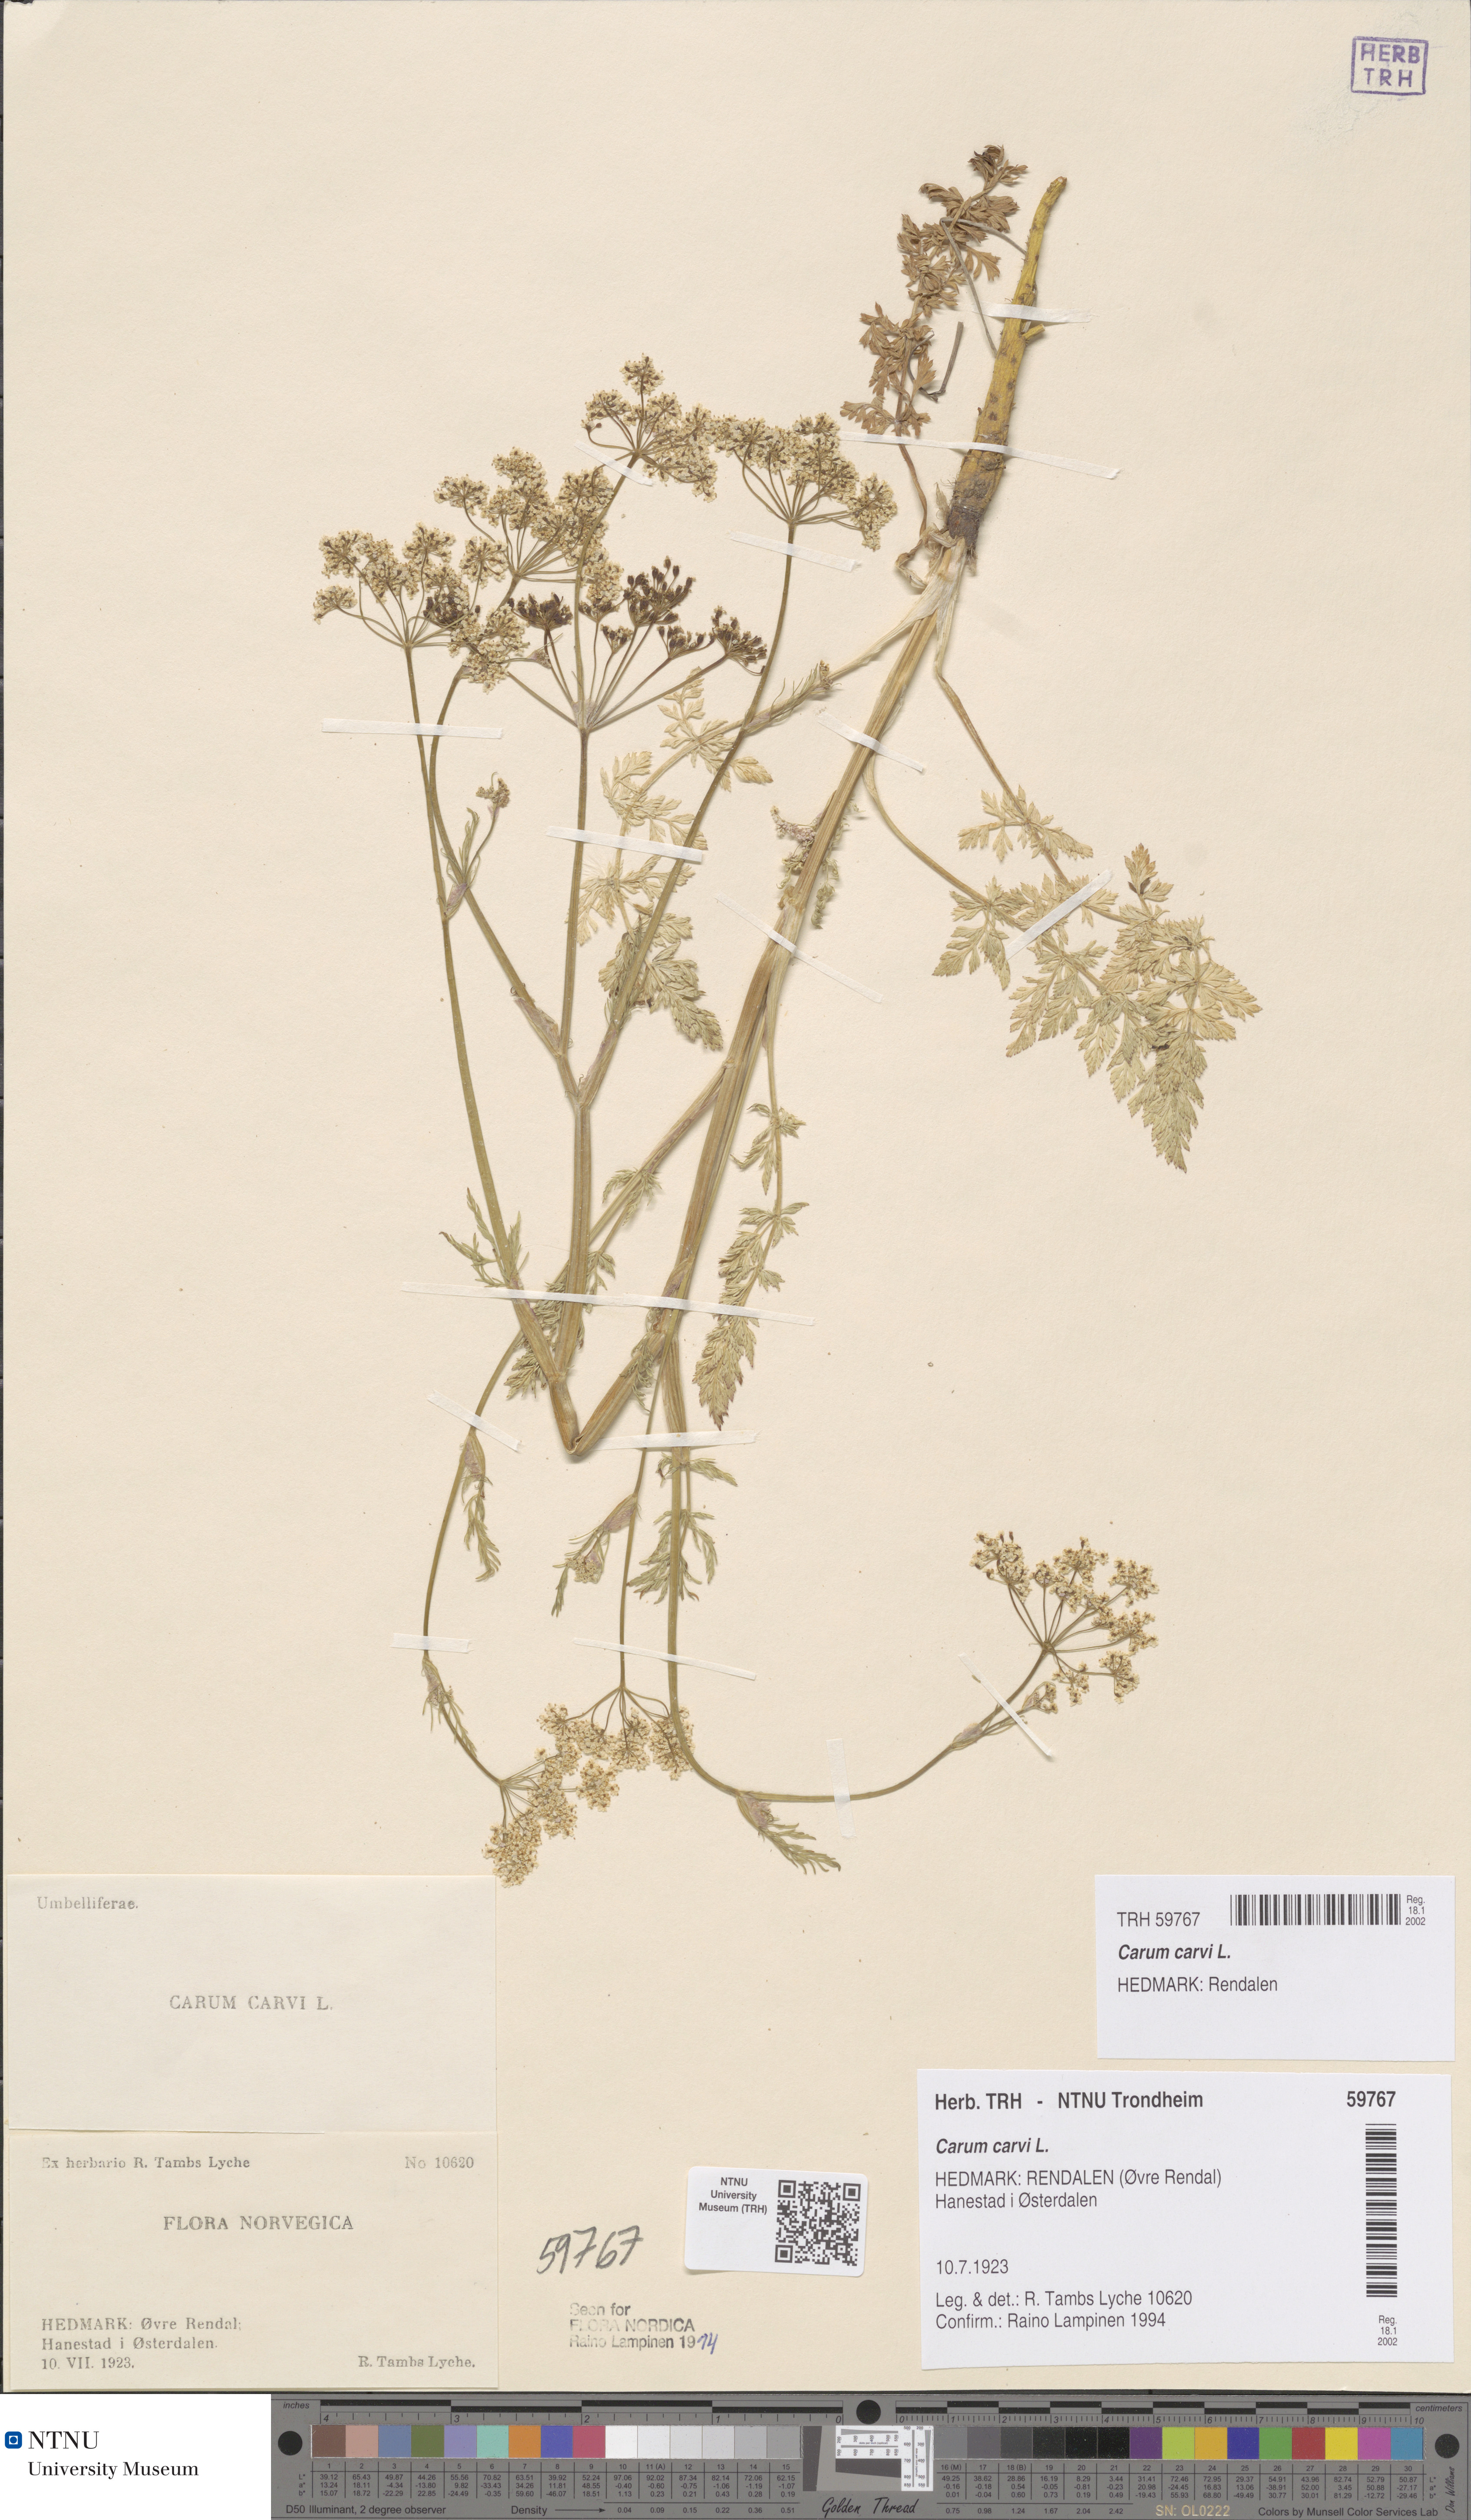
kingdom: Plantae
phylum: Tracheophyta
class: Magnoliopsida
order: Apiales
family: Apiaceae
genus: Carum
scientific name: Carum carvi
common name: Caraway
